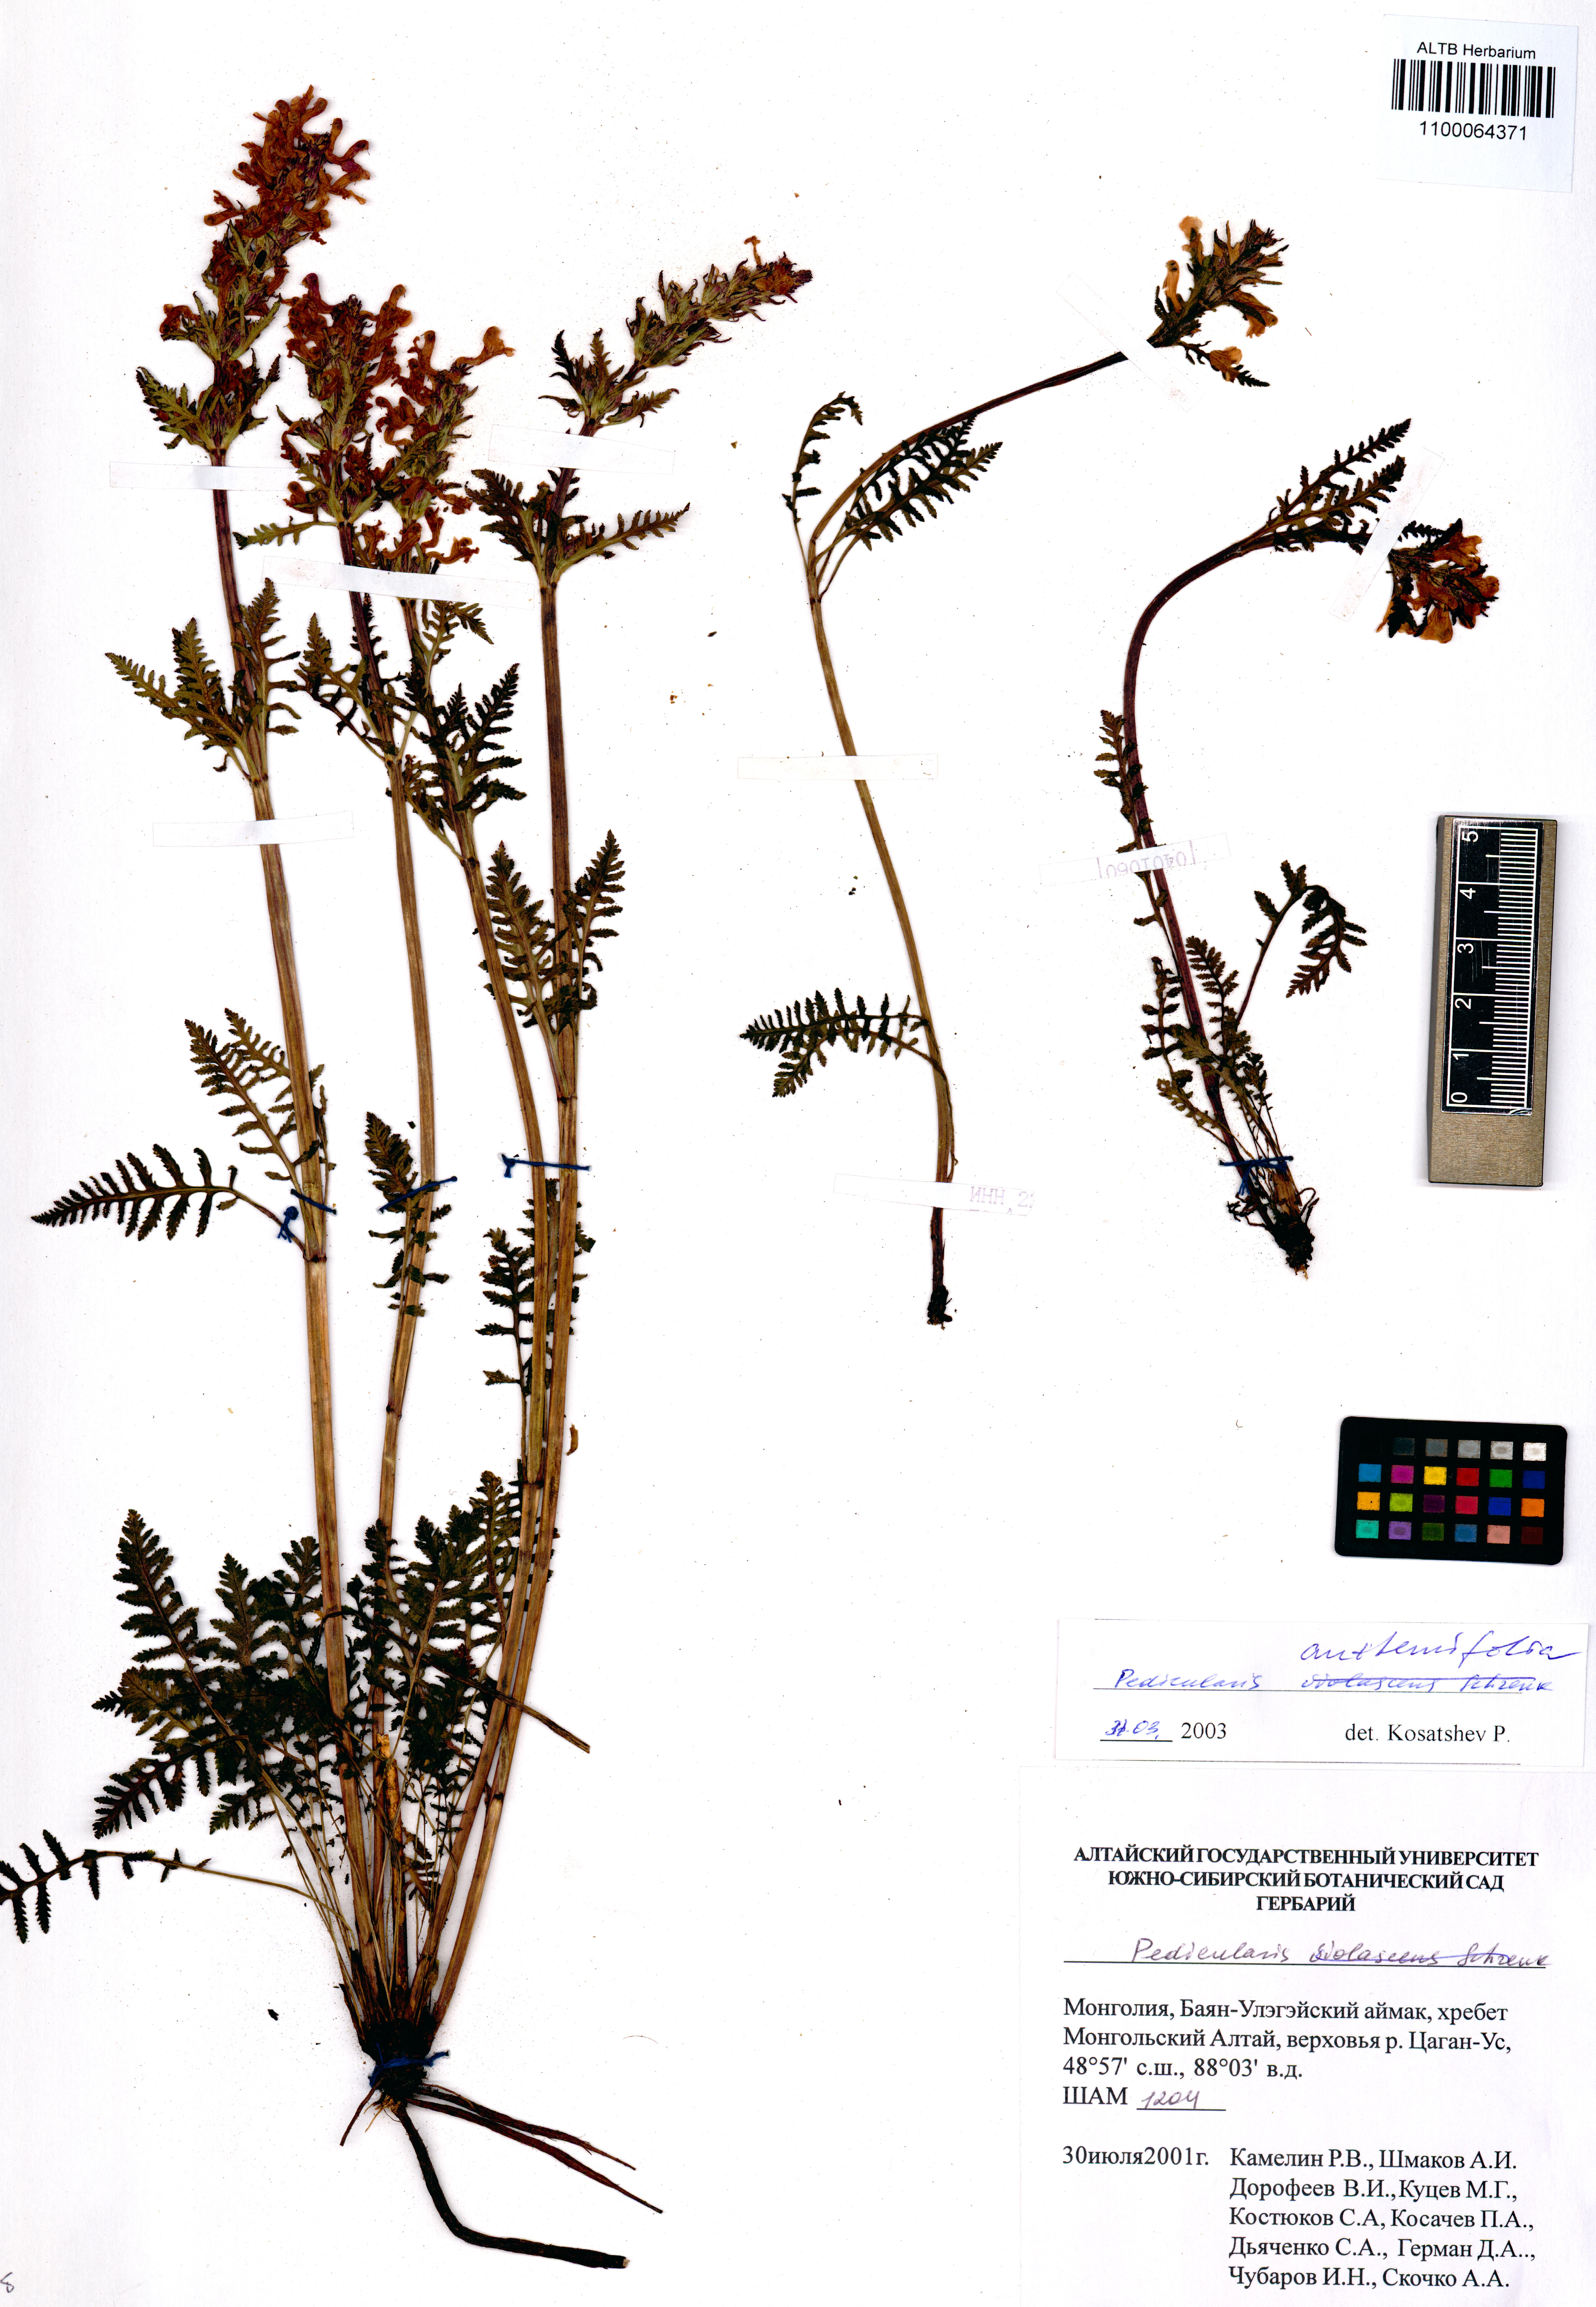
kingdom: Plantae
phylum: Tracheophyta
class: Magnoliopsida
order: Lamiales
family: Orobanchaceae
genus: Pedicularis
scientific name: Pedicularis anthemifolia
